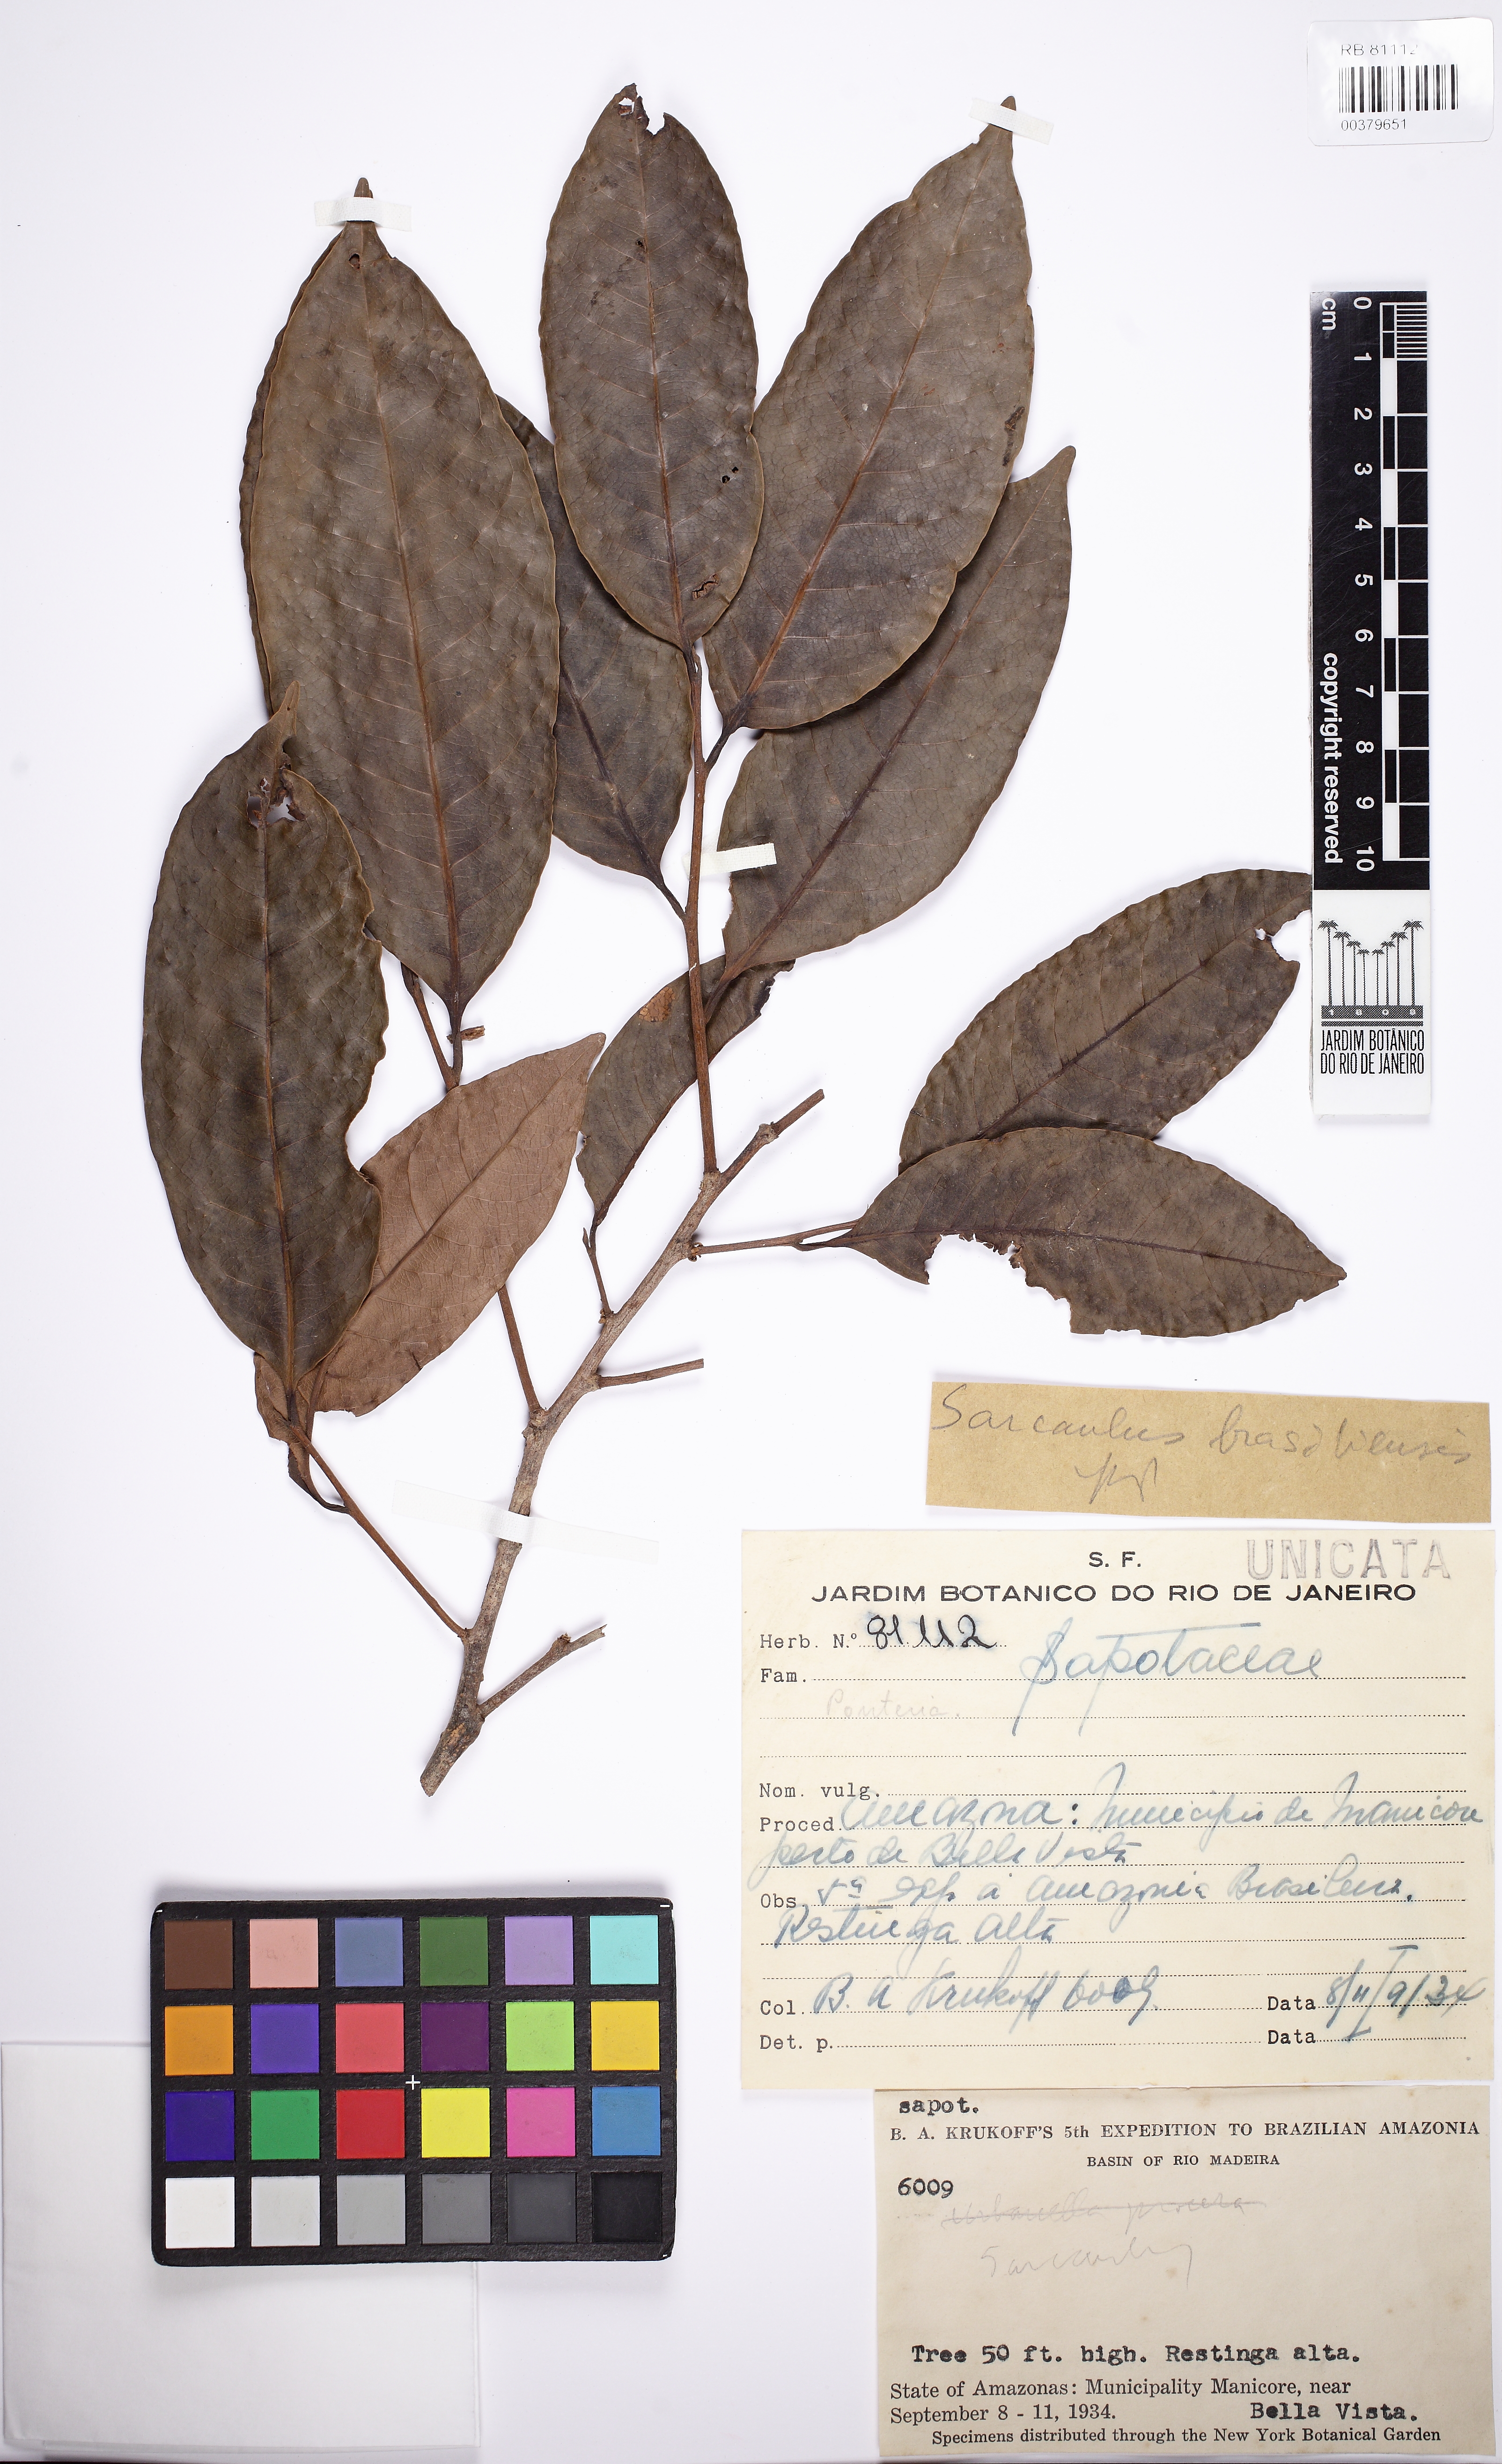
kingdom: Plantae
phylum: Tracheophyta
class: Magnoliopsida
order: Ericales
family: Sapotaceae
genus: Sarcaulus
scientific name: Sarcaulus brasiliensis
